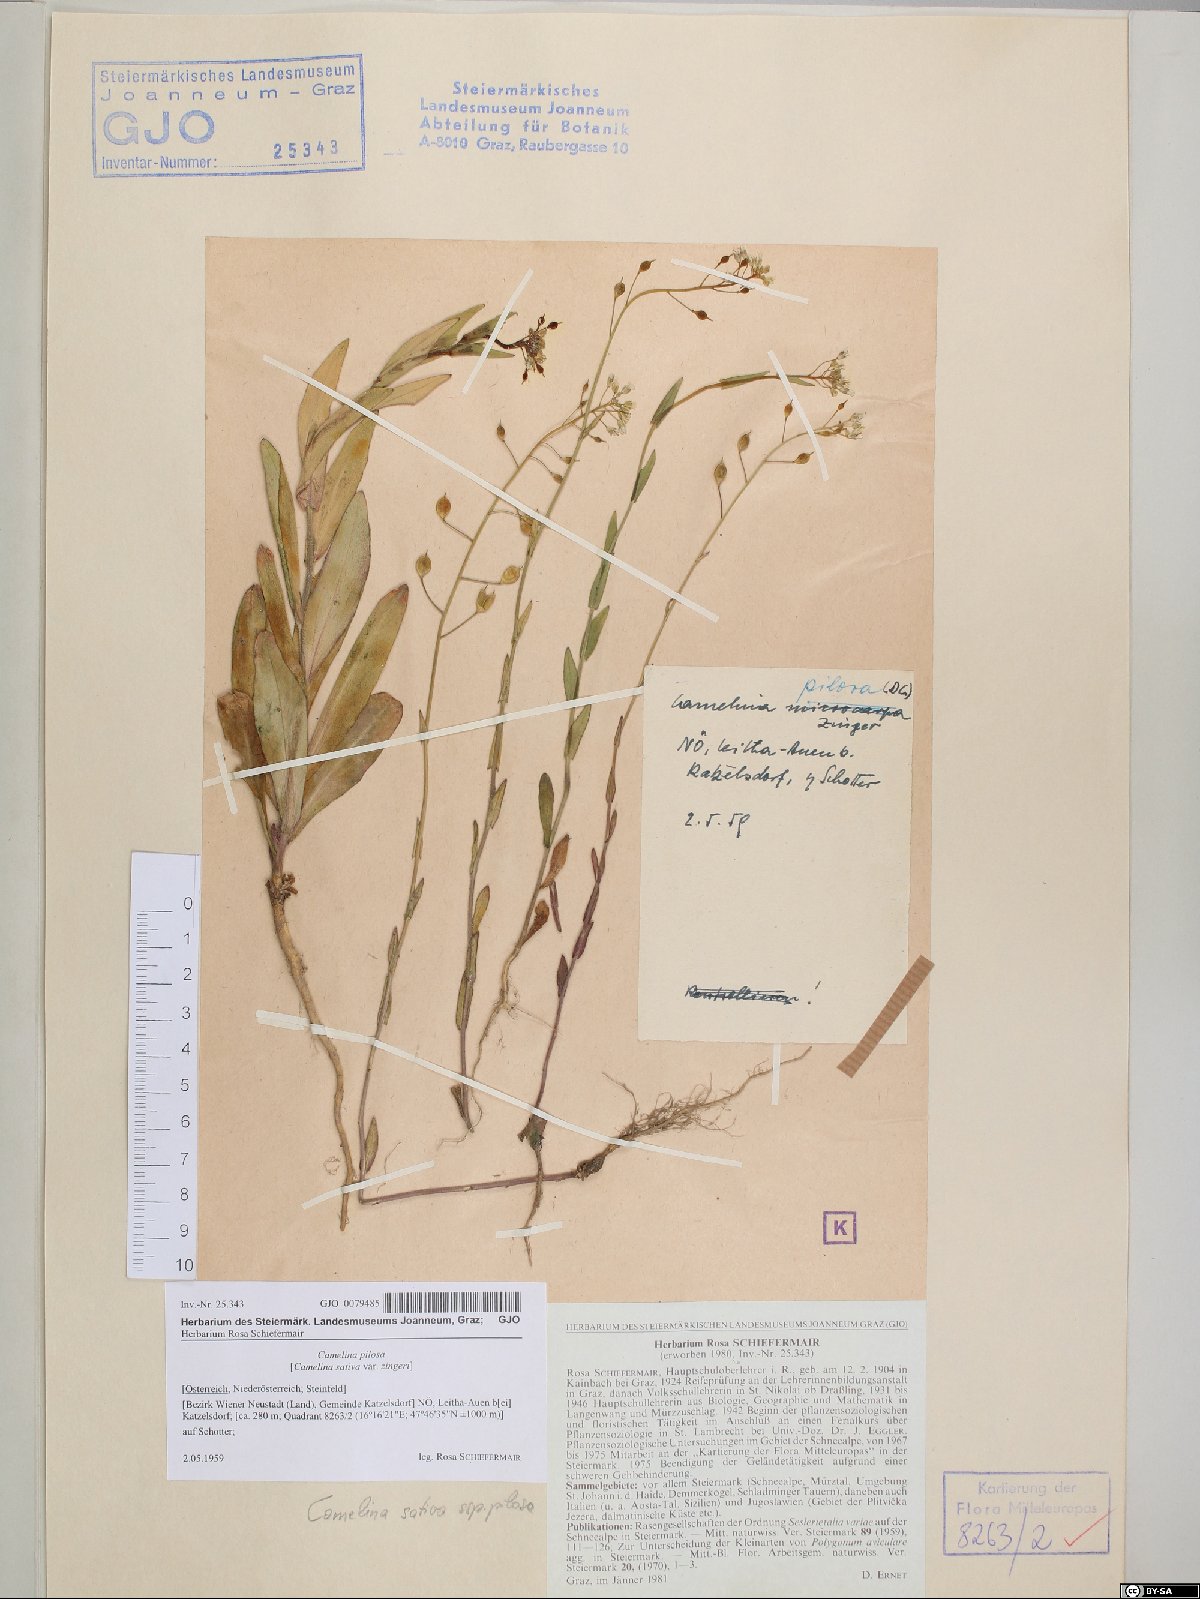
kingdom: Plantae
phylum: Tracheophyta
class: Magnoliopsida
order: Brassicales
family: Brassicaceae
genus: Camelina
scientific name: Camelina microcarpa
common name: Lesser gold-of-pleasure
